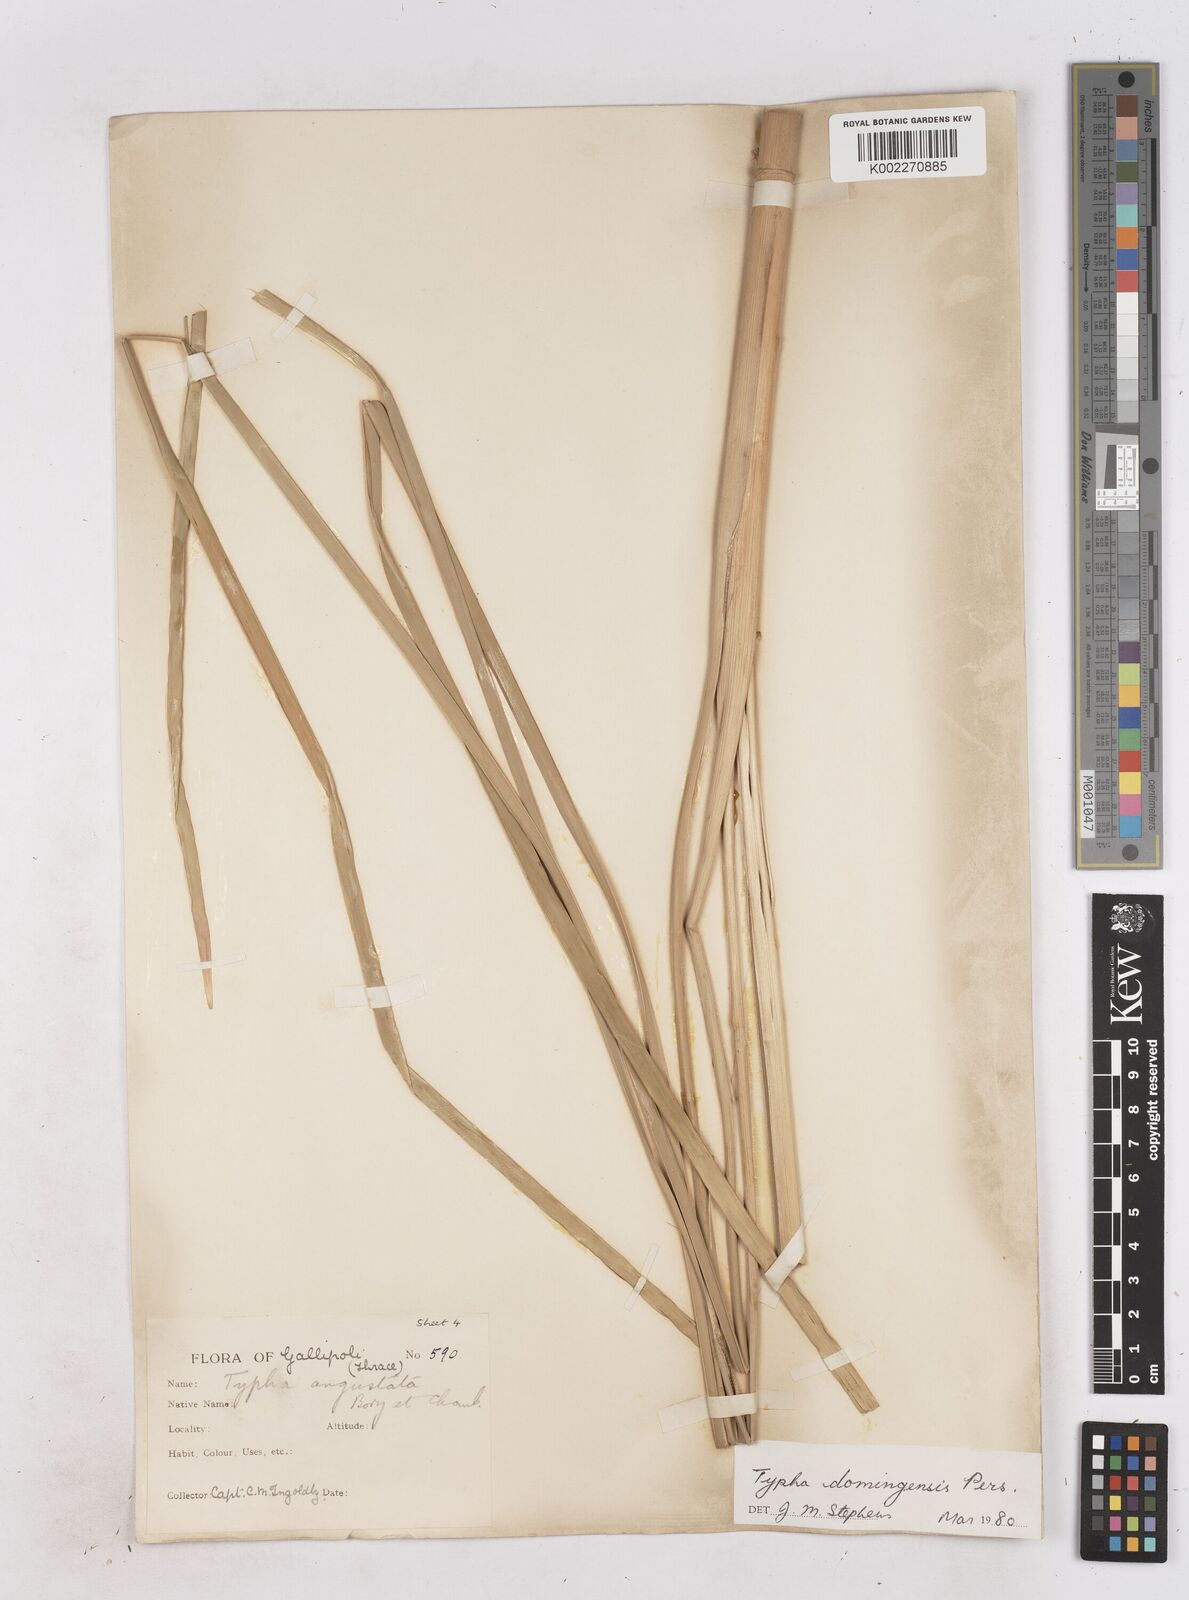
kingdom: Plantae
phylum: Tracheophyta
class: Liliopsida
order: Poales
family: Typhaceae
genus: Typha
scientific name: Typha domingensis
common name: Southern cattail
